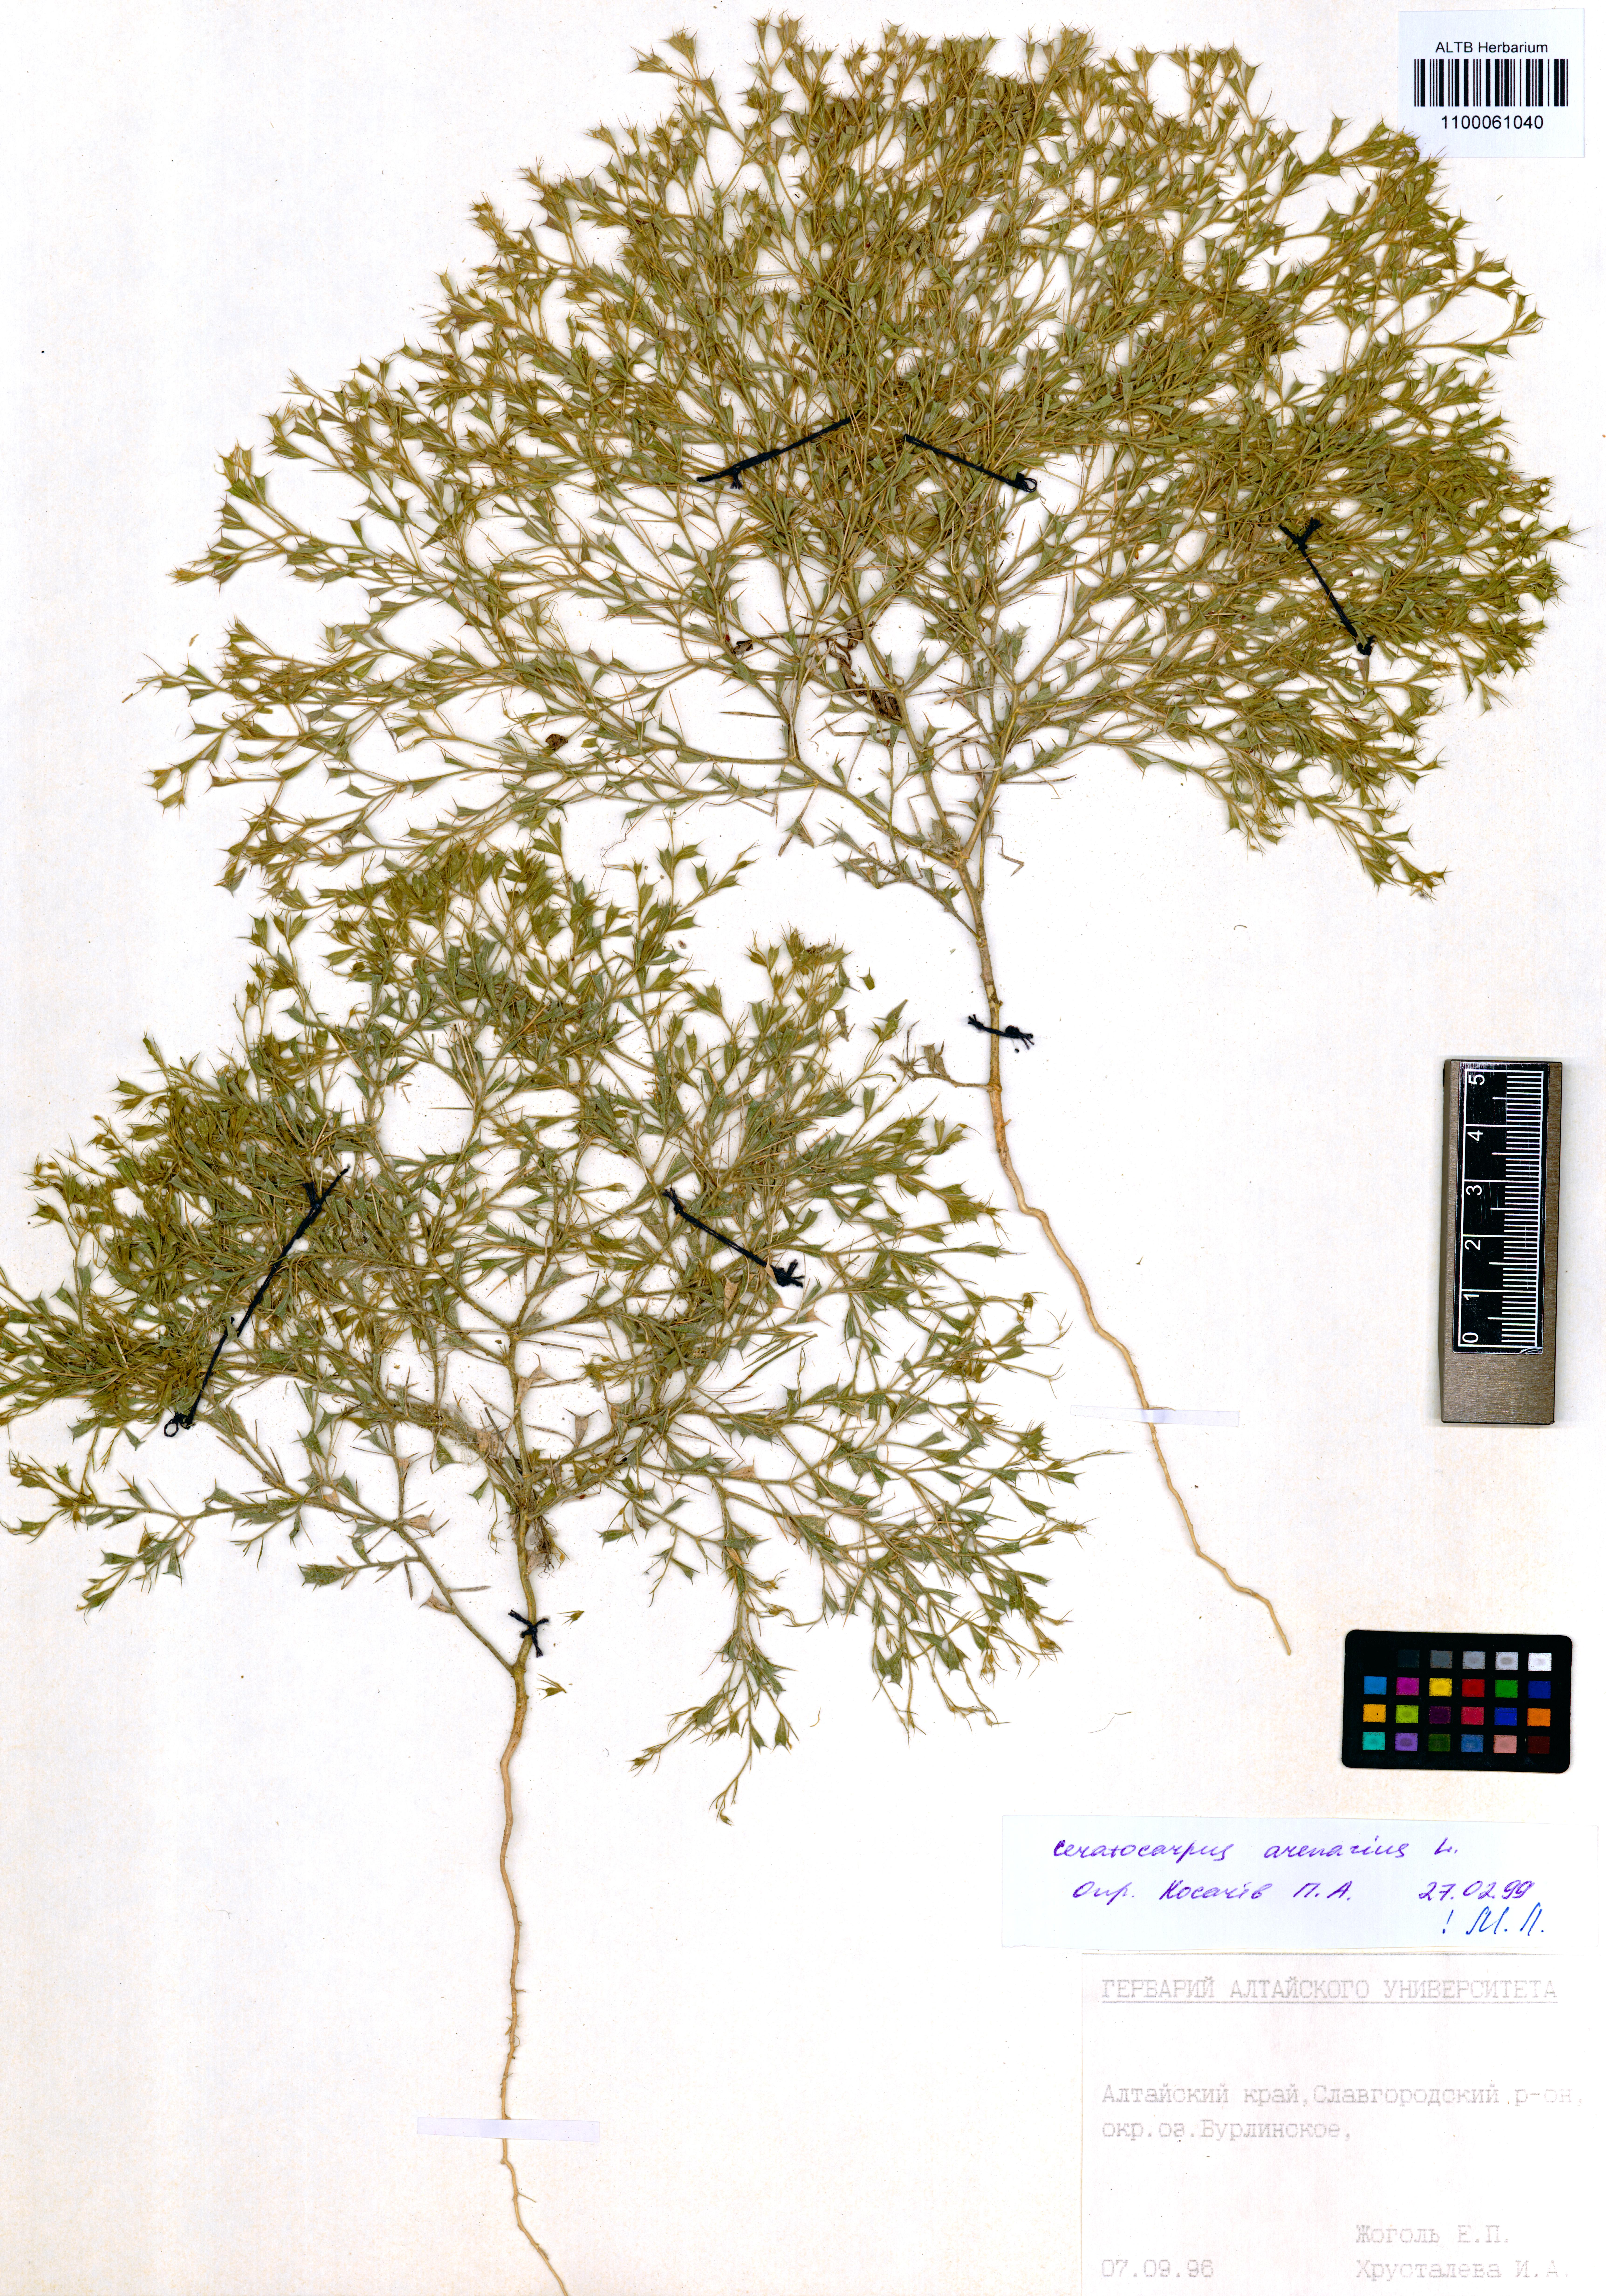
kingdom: Plantae
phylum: Tracheophyta
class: Magnoliopsida
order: Caryophyllales
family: Amaranthaceae
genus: Ceratocarpus
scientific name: Ceratocarpus arenarius
